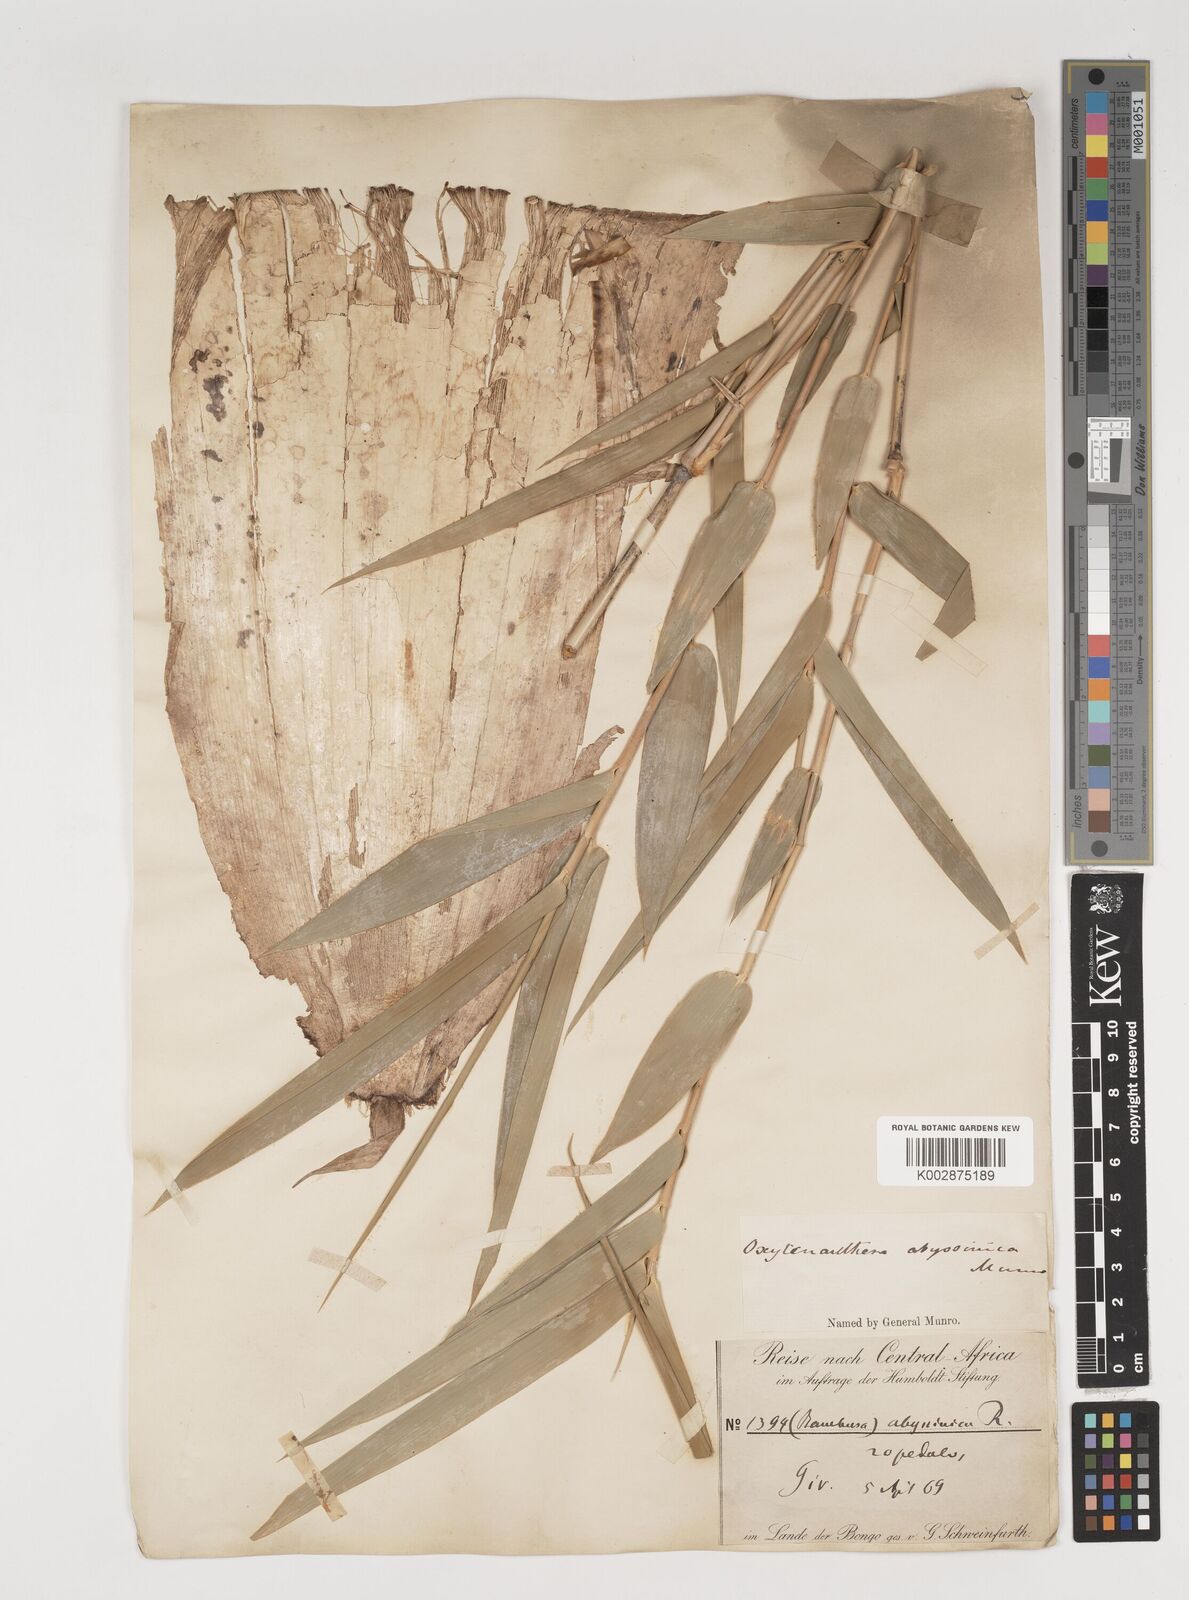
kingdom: Plantae
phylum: Tracheophyta
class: Liliopsida
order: Poales
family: Poaceae
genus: Oxytenanthera
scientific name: Oxytenanthera abyssinica
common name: Wine bamboo
